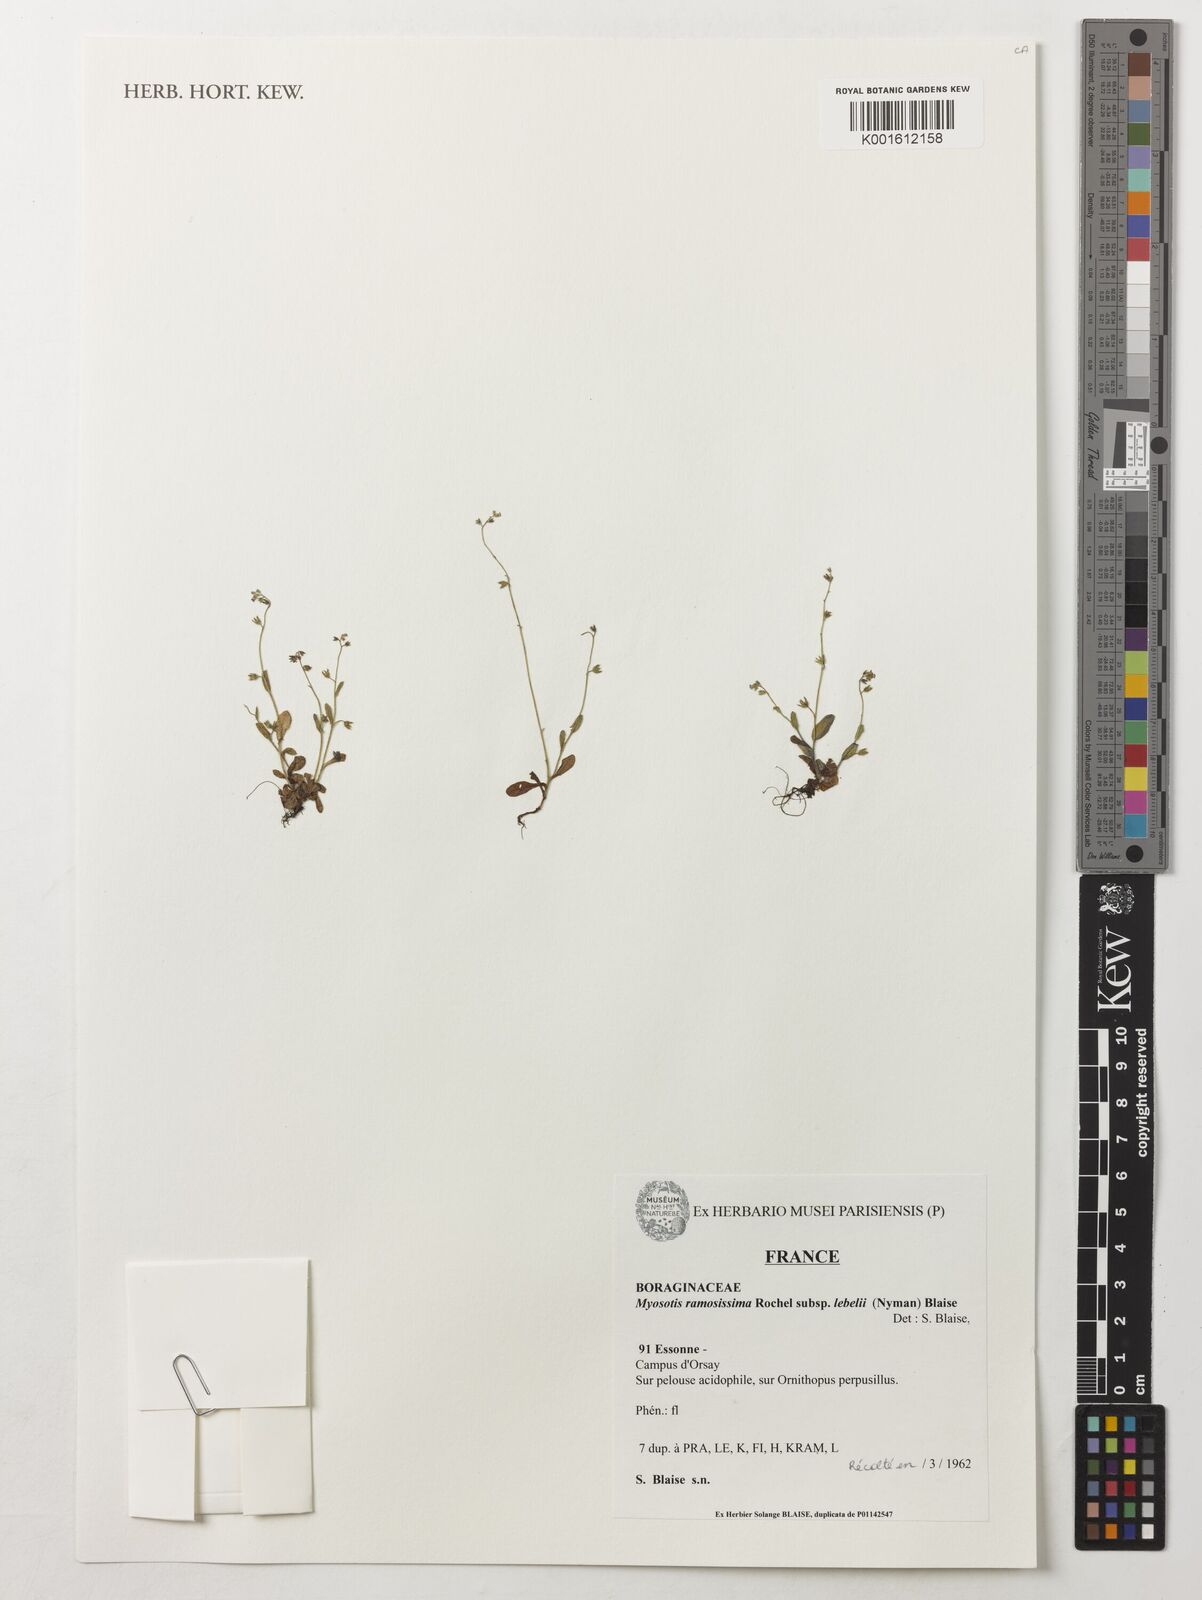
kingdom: Plantae
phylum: Tracheophyta
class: Magnoliopsida
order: Boraginales
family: Boraginaceae
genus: Myosotis
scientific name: Myosotis ramosissima
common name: Early forget-me-not
